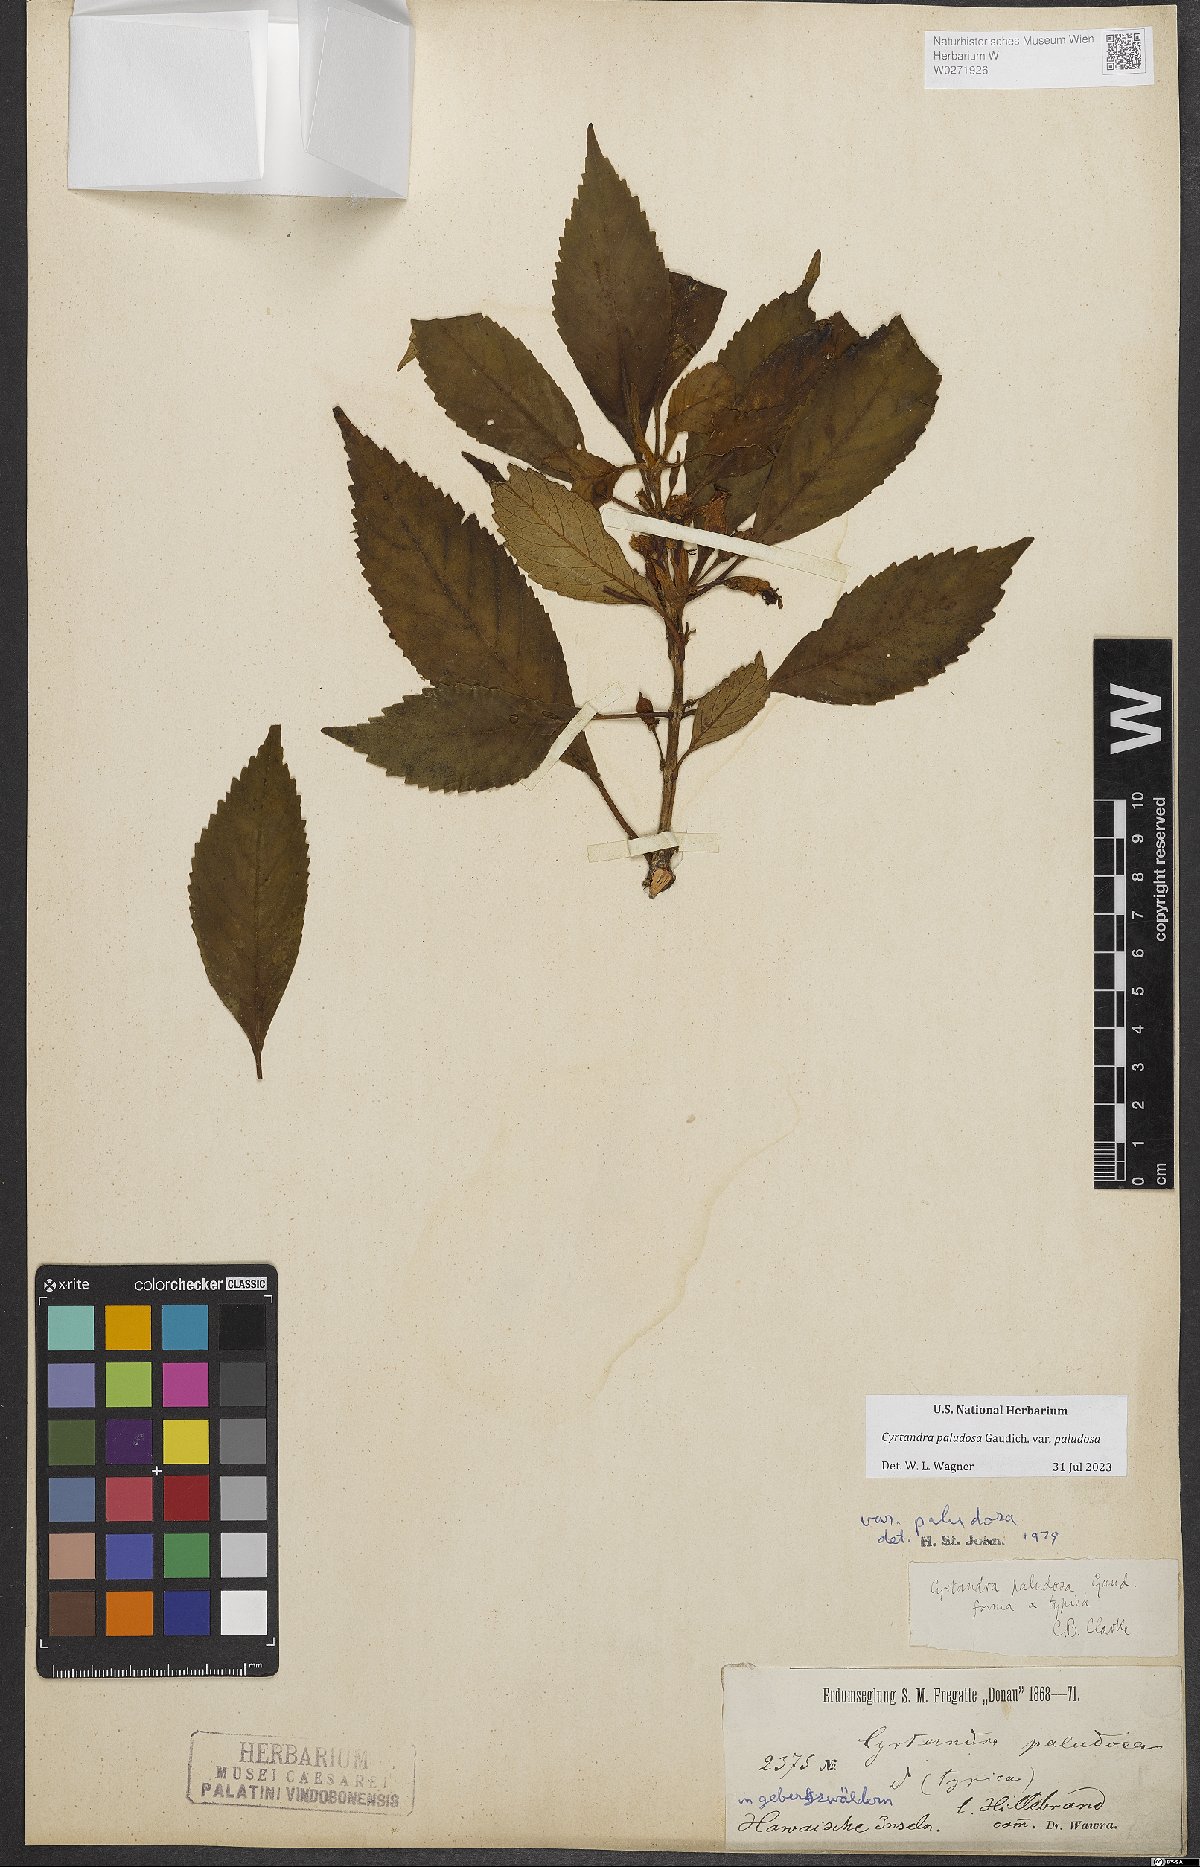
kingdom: Plantae
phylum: Tracheophyta
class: Magnoliopsida
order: Lamiales
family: Gesneriaceae
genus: Cyrtandra
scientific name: Cyrtandra paludosa
